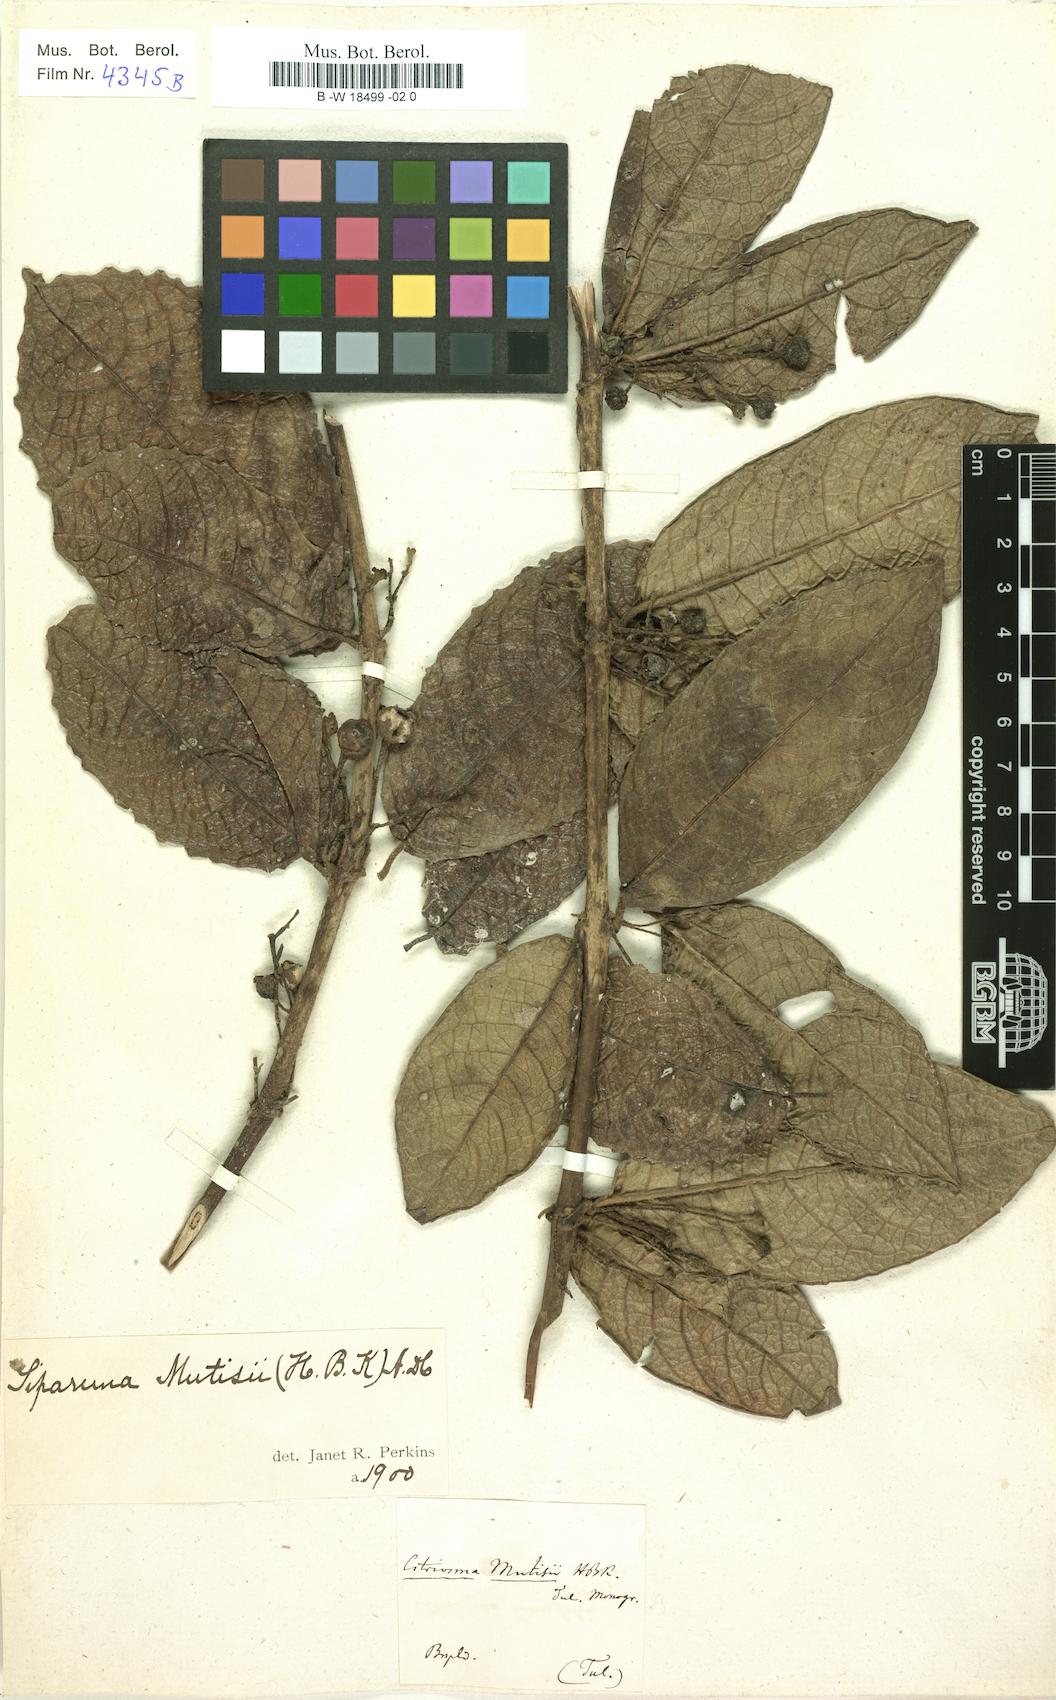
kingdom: Plantae
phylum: Tracheophyta
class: Magnoliopsida
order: Laurales
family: Siparunaceae
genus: Siparuna
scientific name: Siparuna poeppigii
